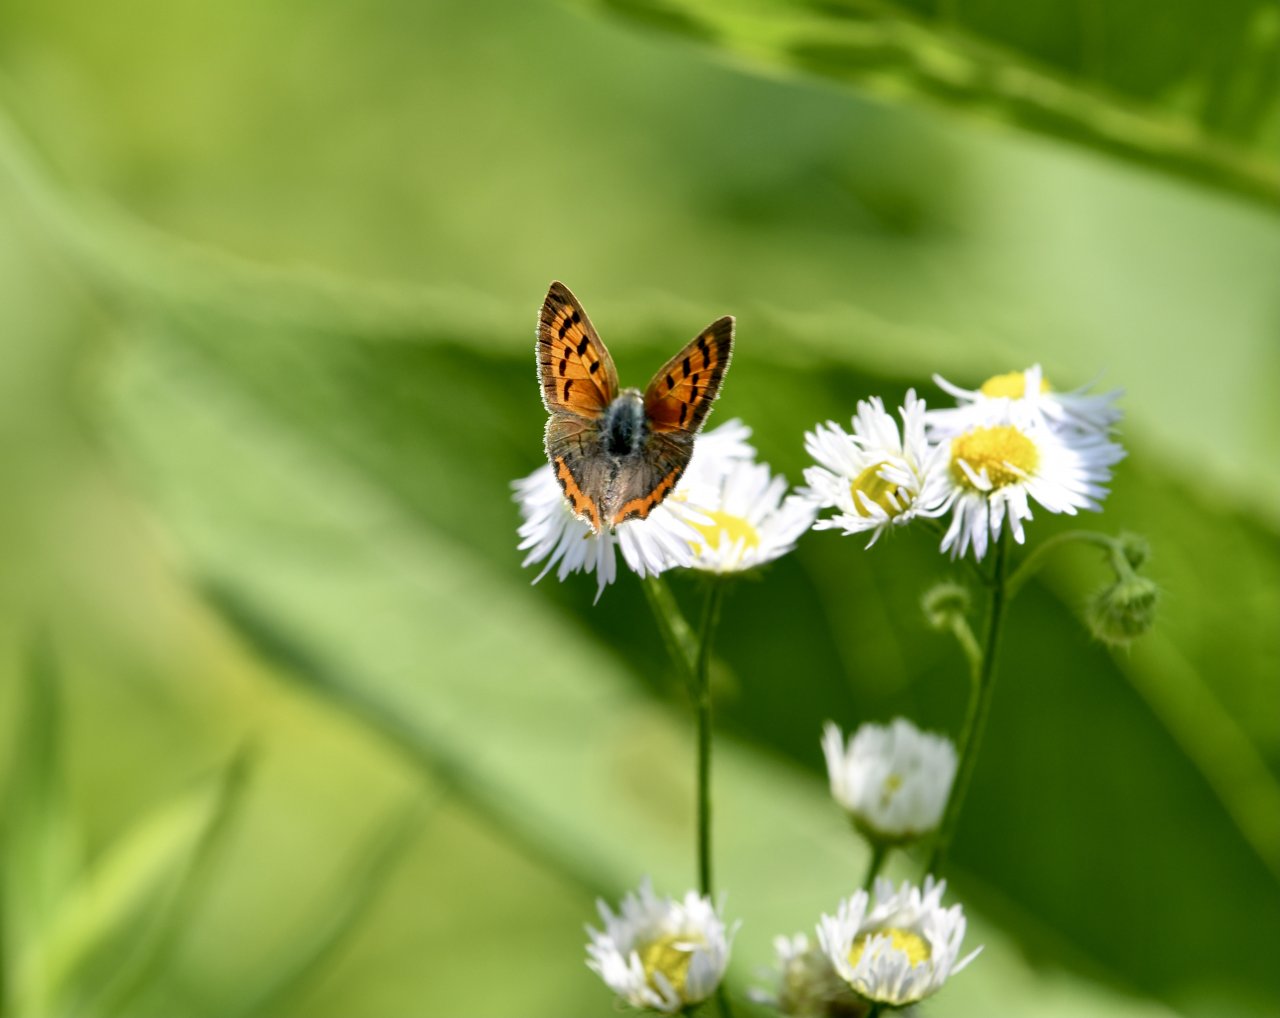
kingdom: Animalia
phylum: Arthropoda
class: Insecta
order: Lepidoptera
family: Lycaenidae
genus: Lycaena
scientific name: Lycaena phlaeas
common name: American Copper
